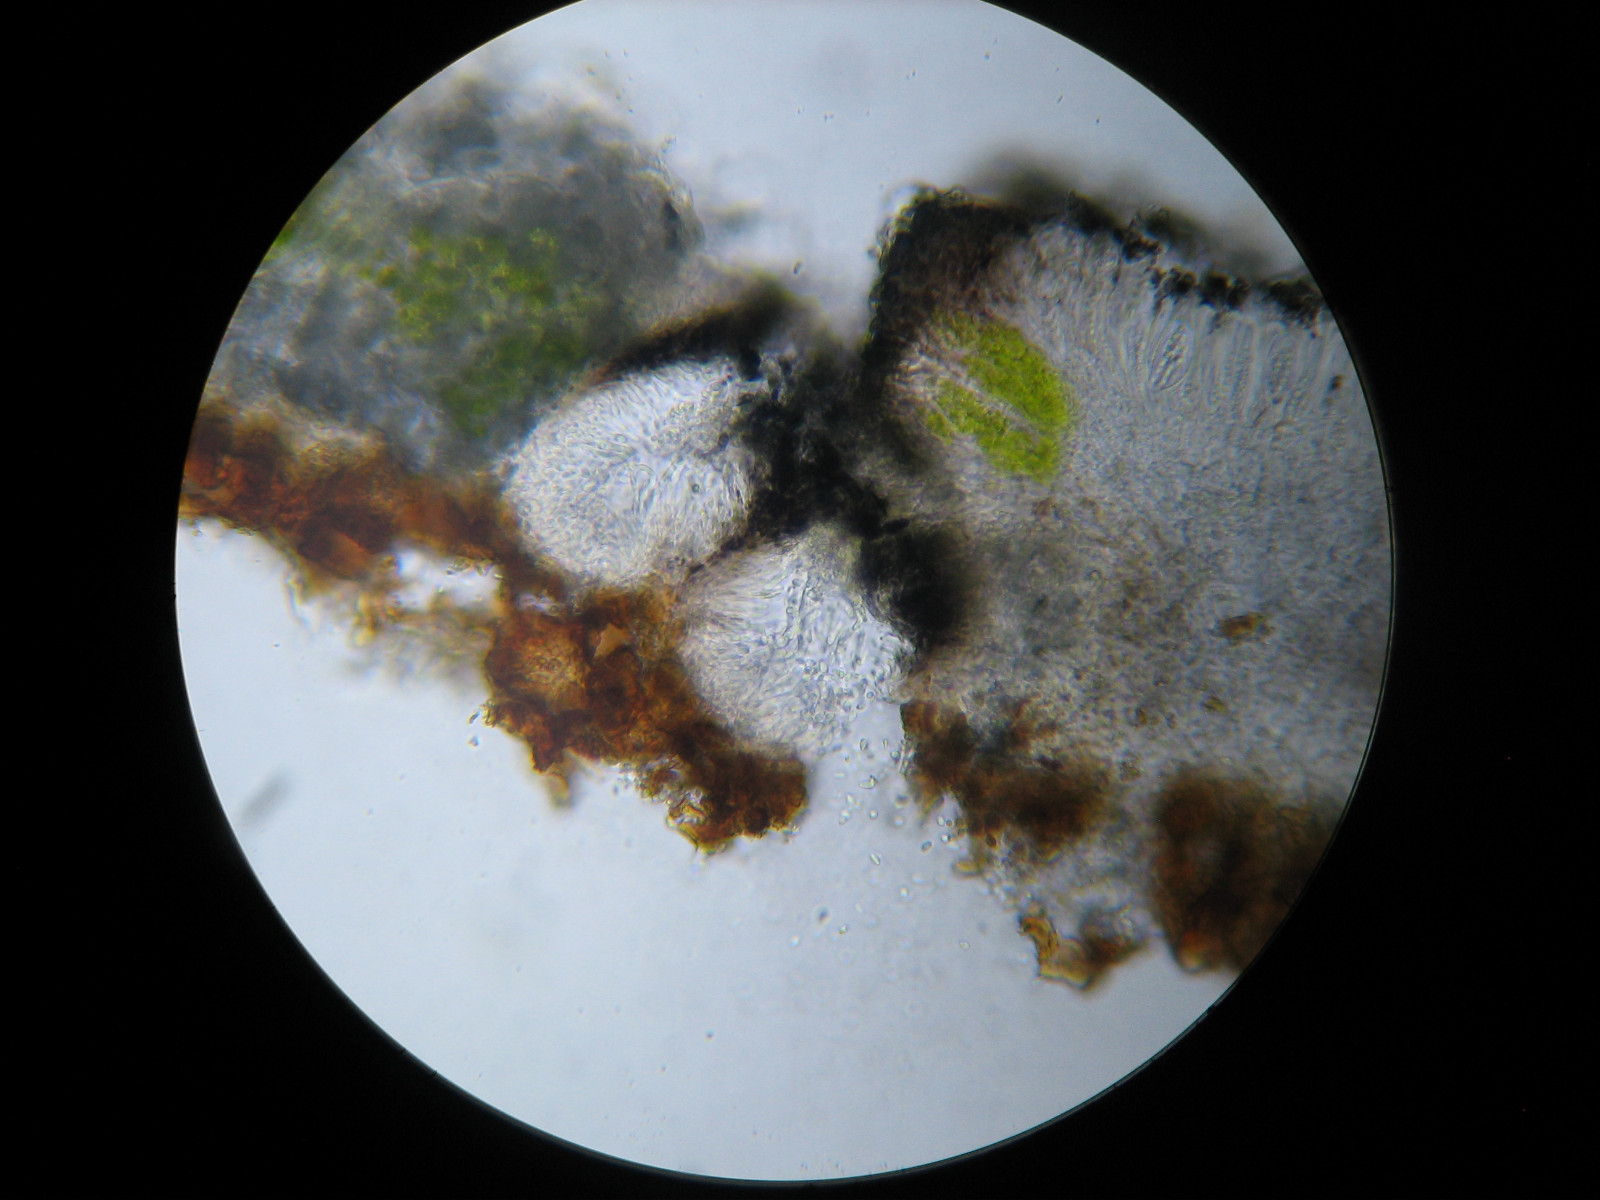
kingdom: Fungi
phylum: Ascomycota
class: Lecanoromycetes
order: Lecanorales
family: Ramalinaceae
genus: Cliostomum
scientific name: Cliostomum griffithii
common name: trefarvet tensporelav
